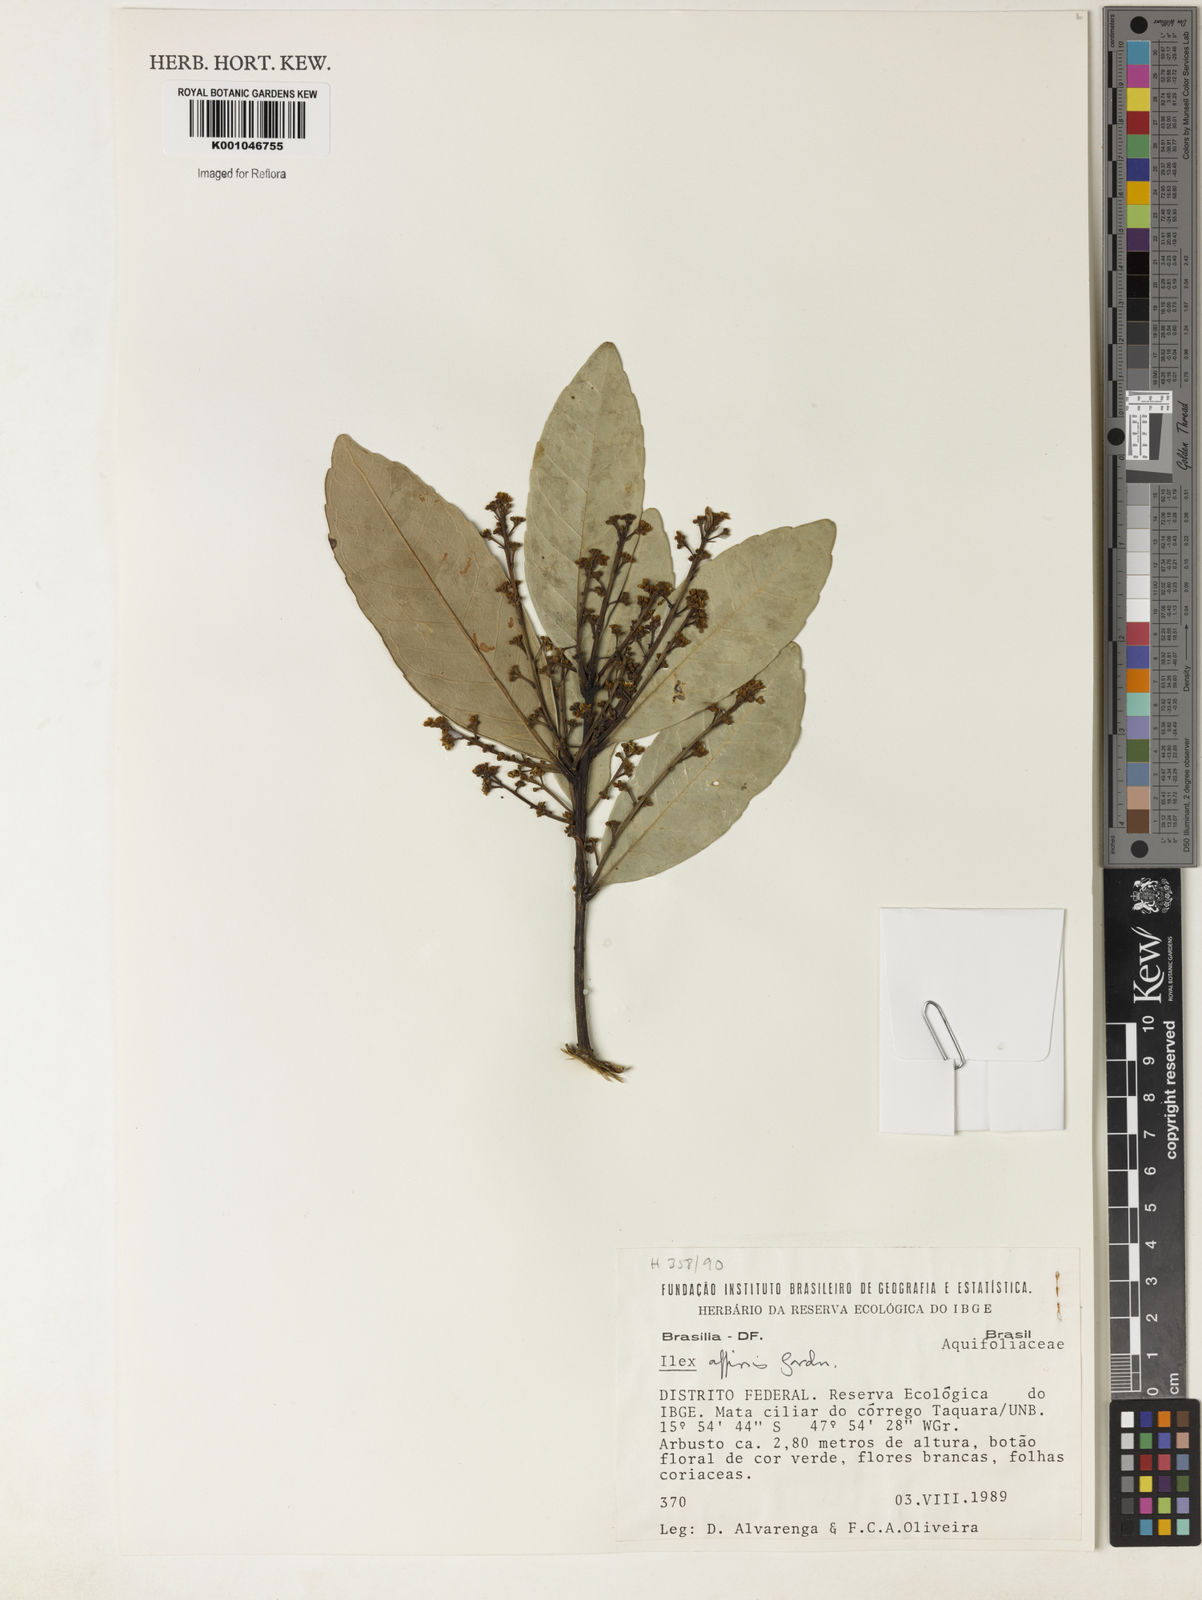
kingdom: Plantae
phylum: Tracheophyta
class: Magnoliopsida
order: Aquifoliales
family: Aquifoliaceae
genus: Ilex
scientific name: Ilex affinis
